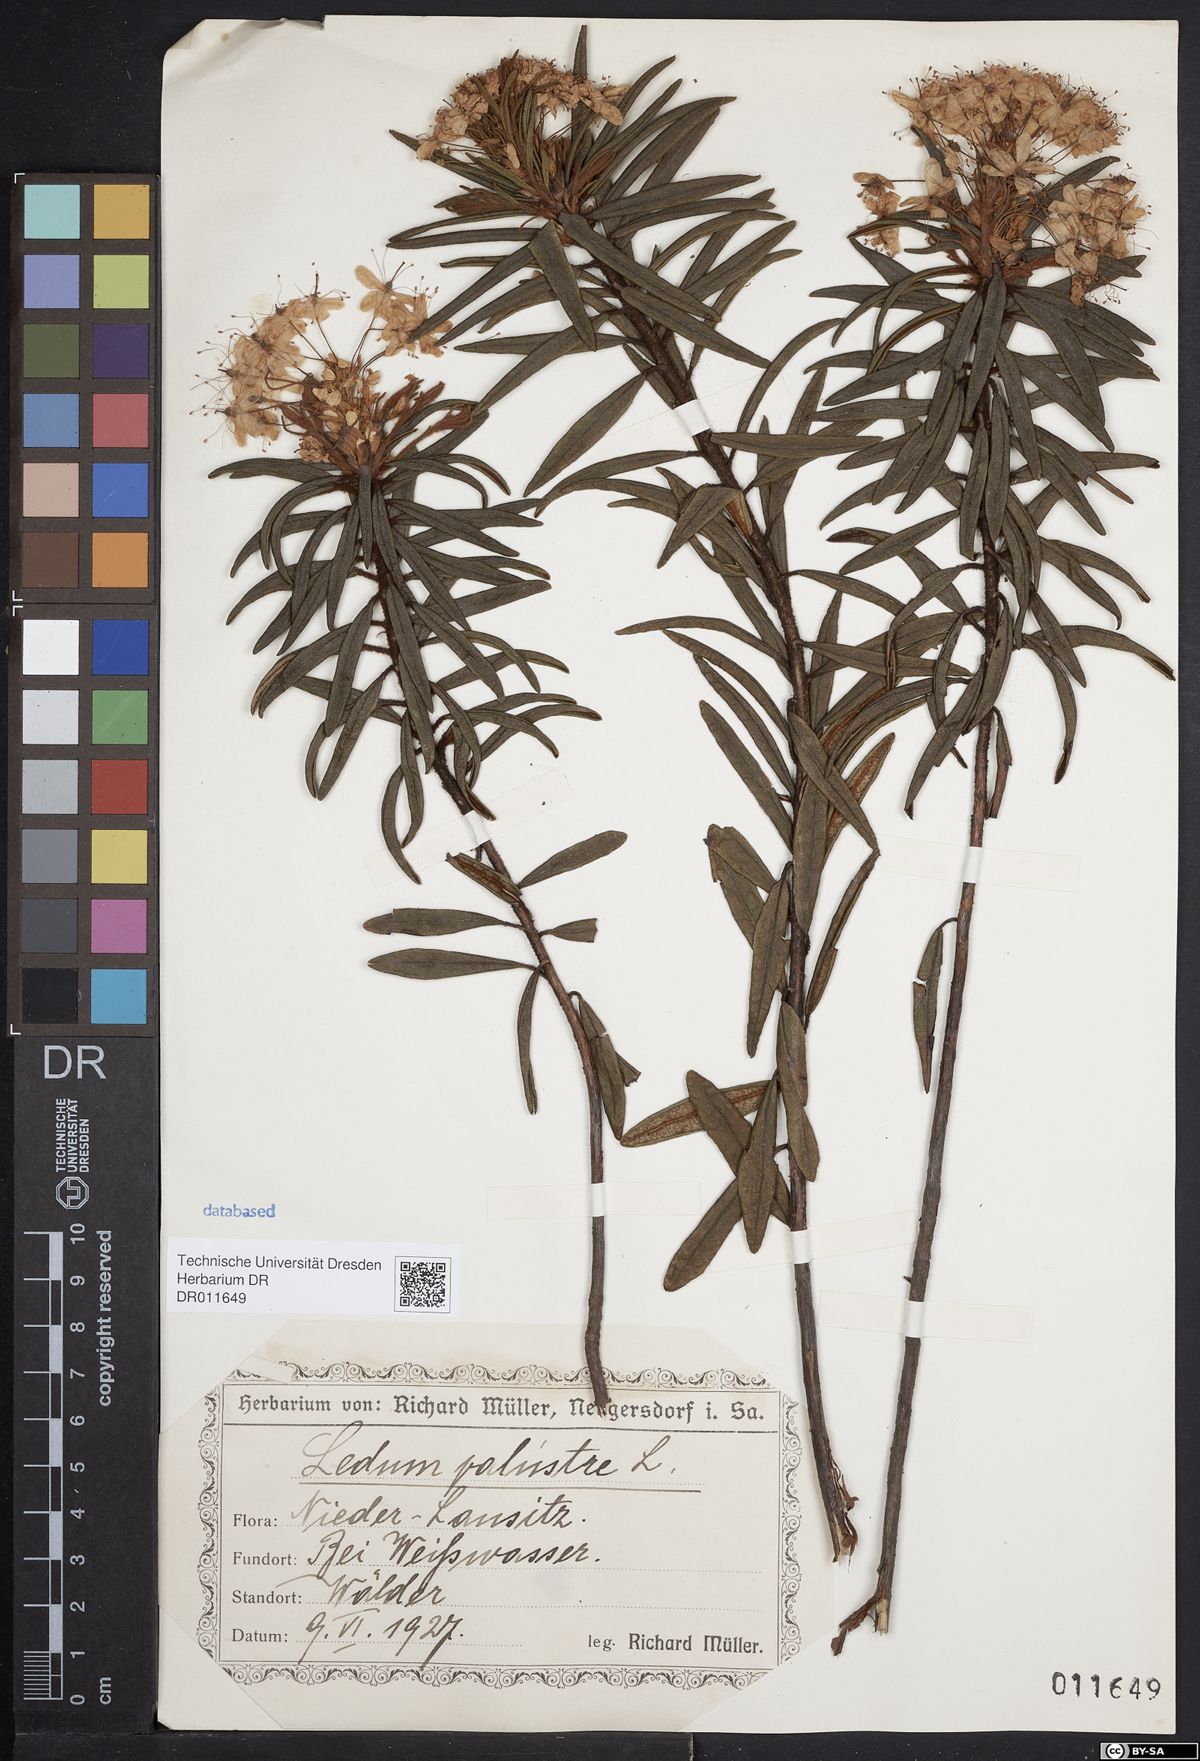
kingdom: Plantae
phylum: Tracheophyta
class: Magnoliopsida
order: Ericales
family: Ericaceae
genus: Rhododendron
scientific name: Rhododendron tomentosum
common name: Marsh labrador tea
